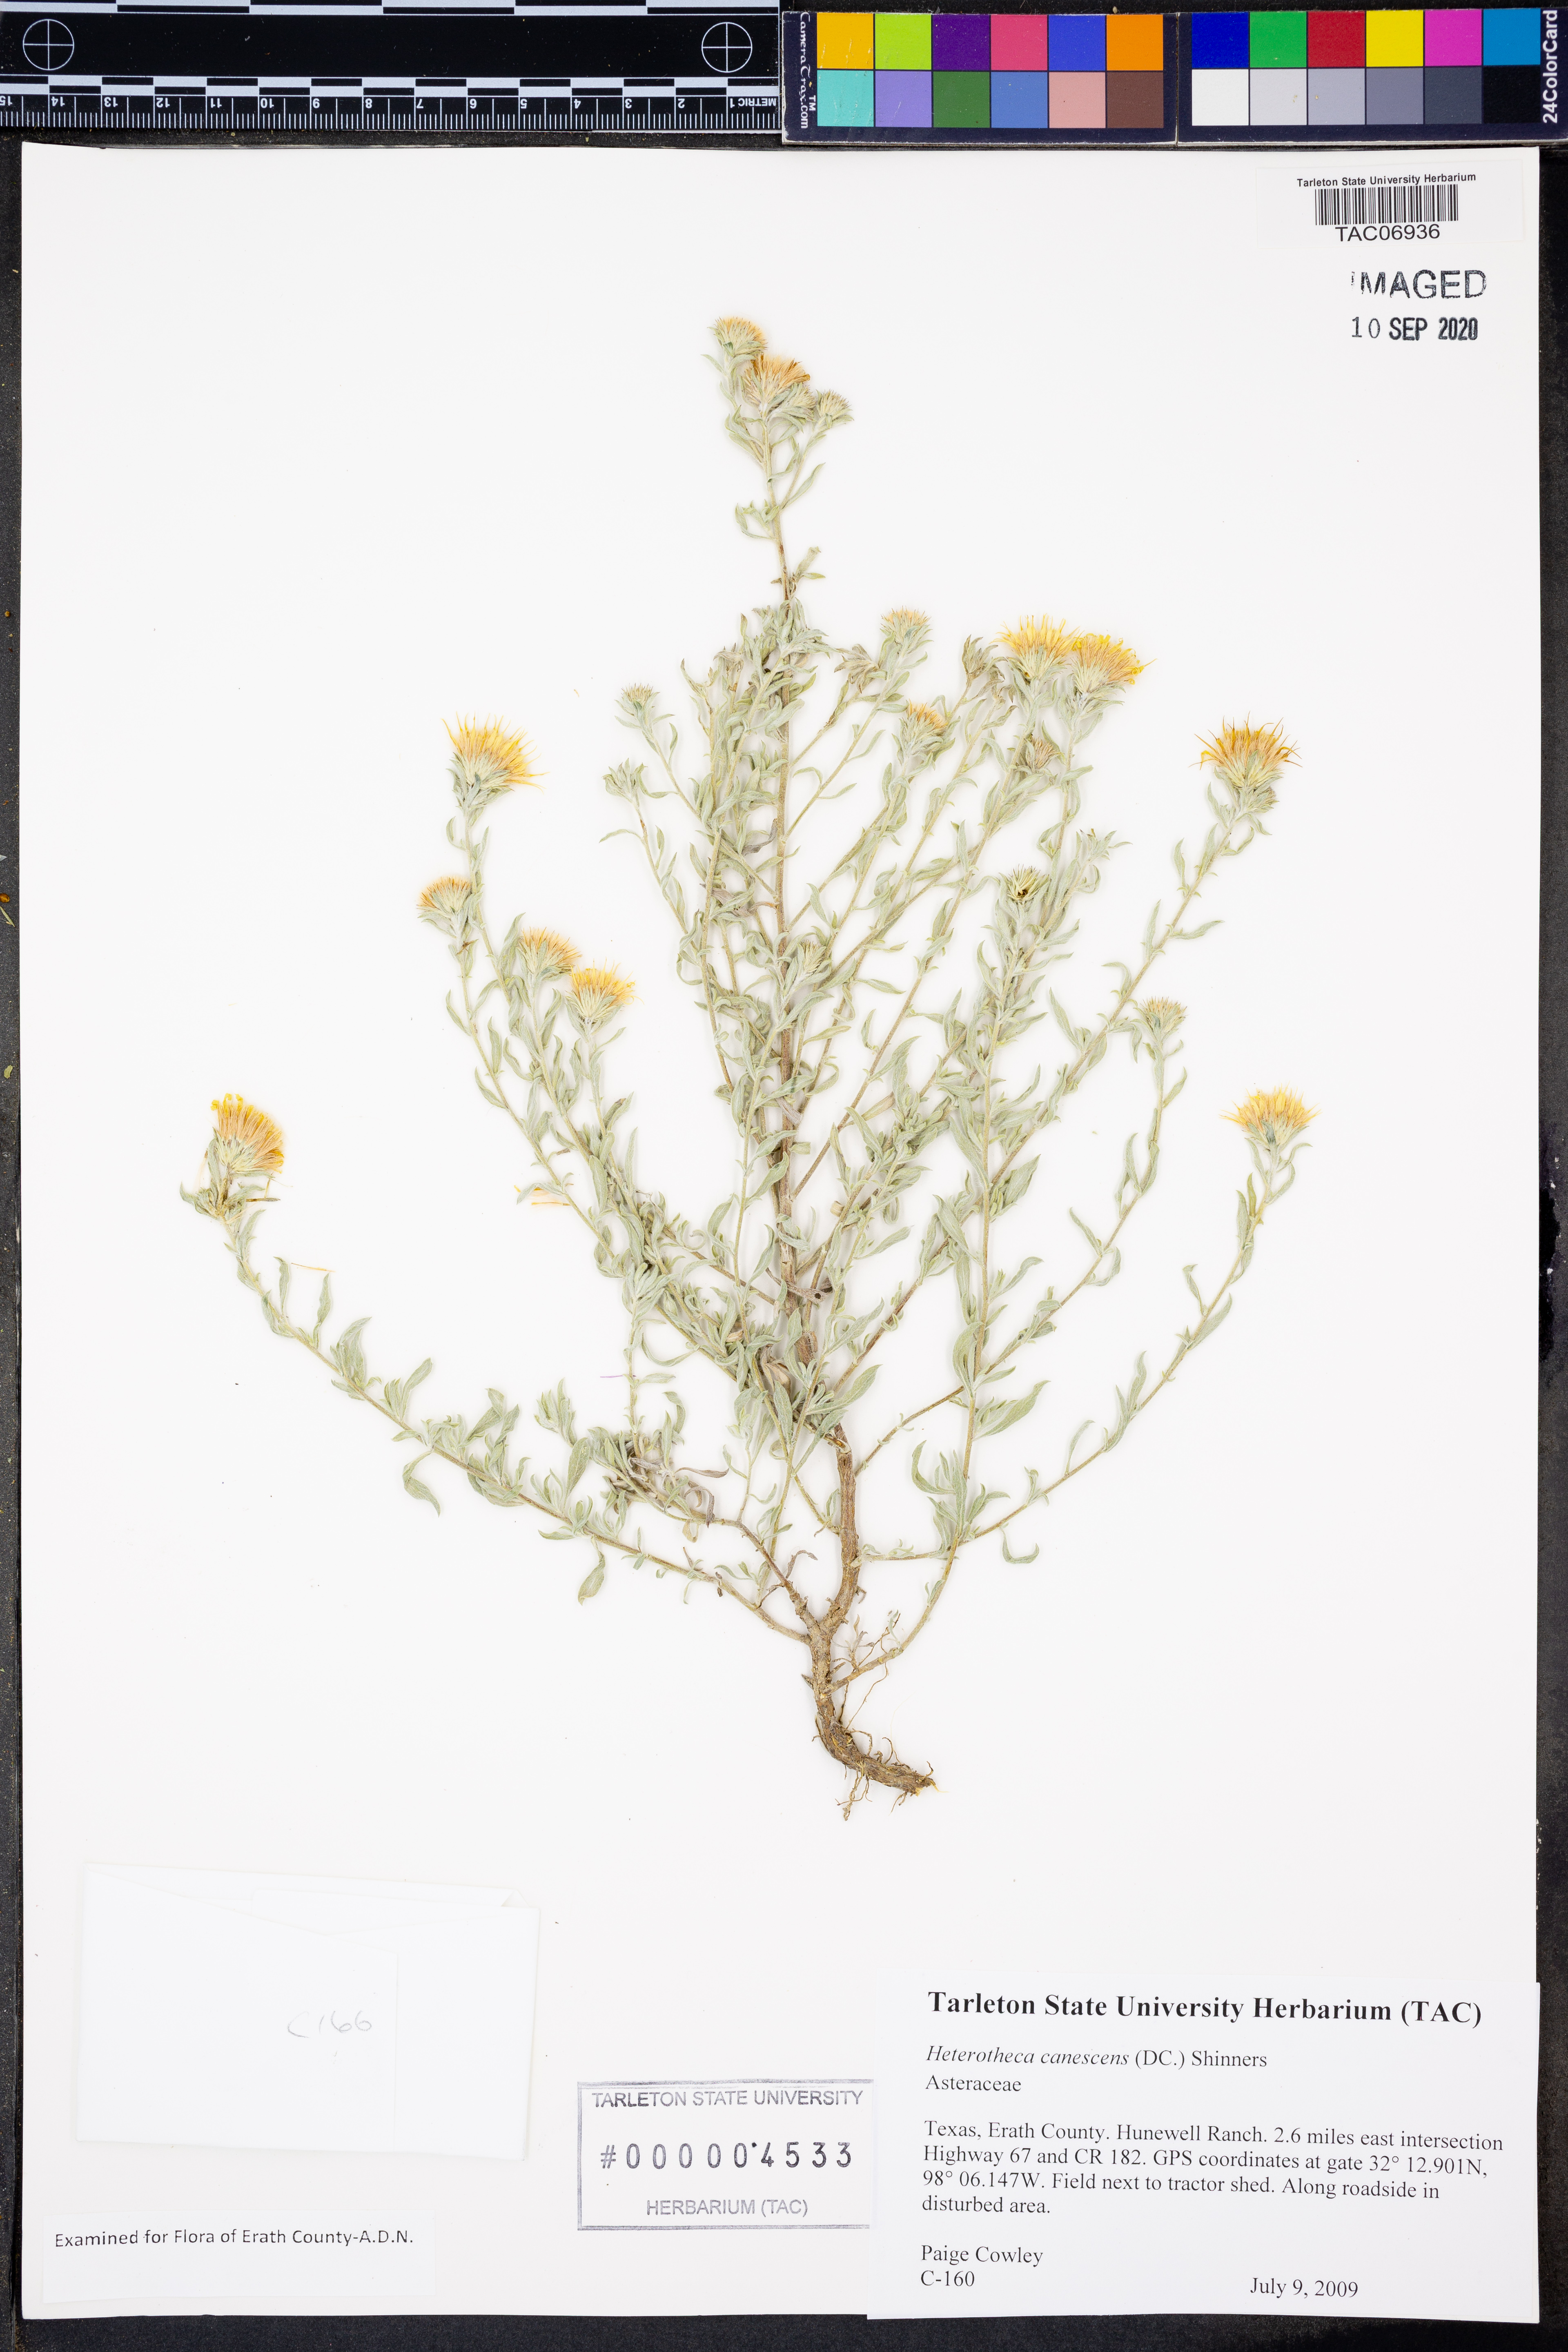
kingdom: Plantae
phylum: Tracheophyta
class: Magnoliopsida
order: Asterales
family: Asteraceae
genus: Heterotheca
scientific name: Heterotheca canescens
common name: Hoary golden-aster
